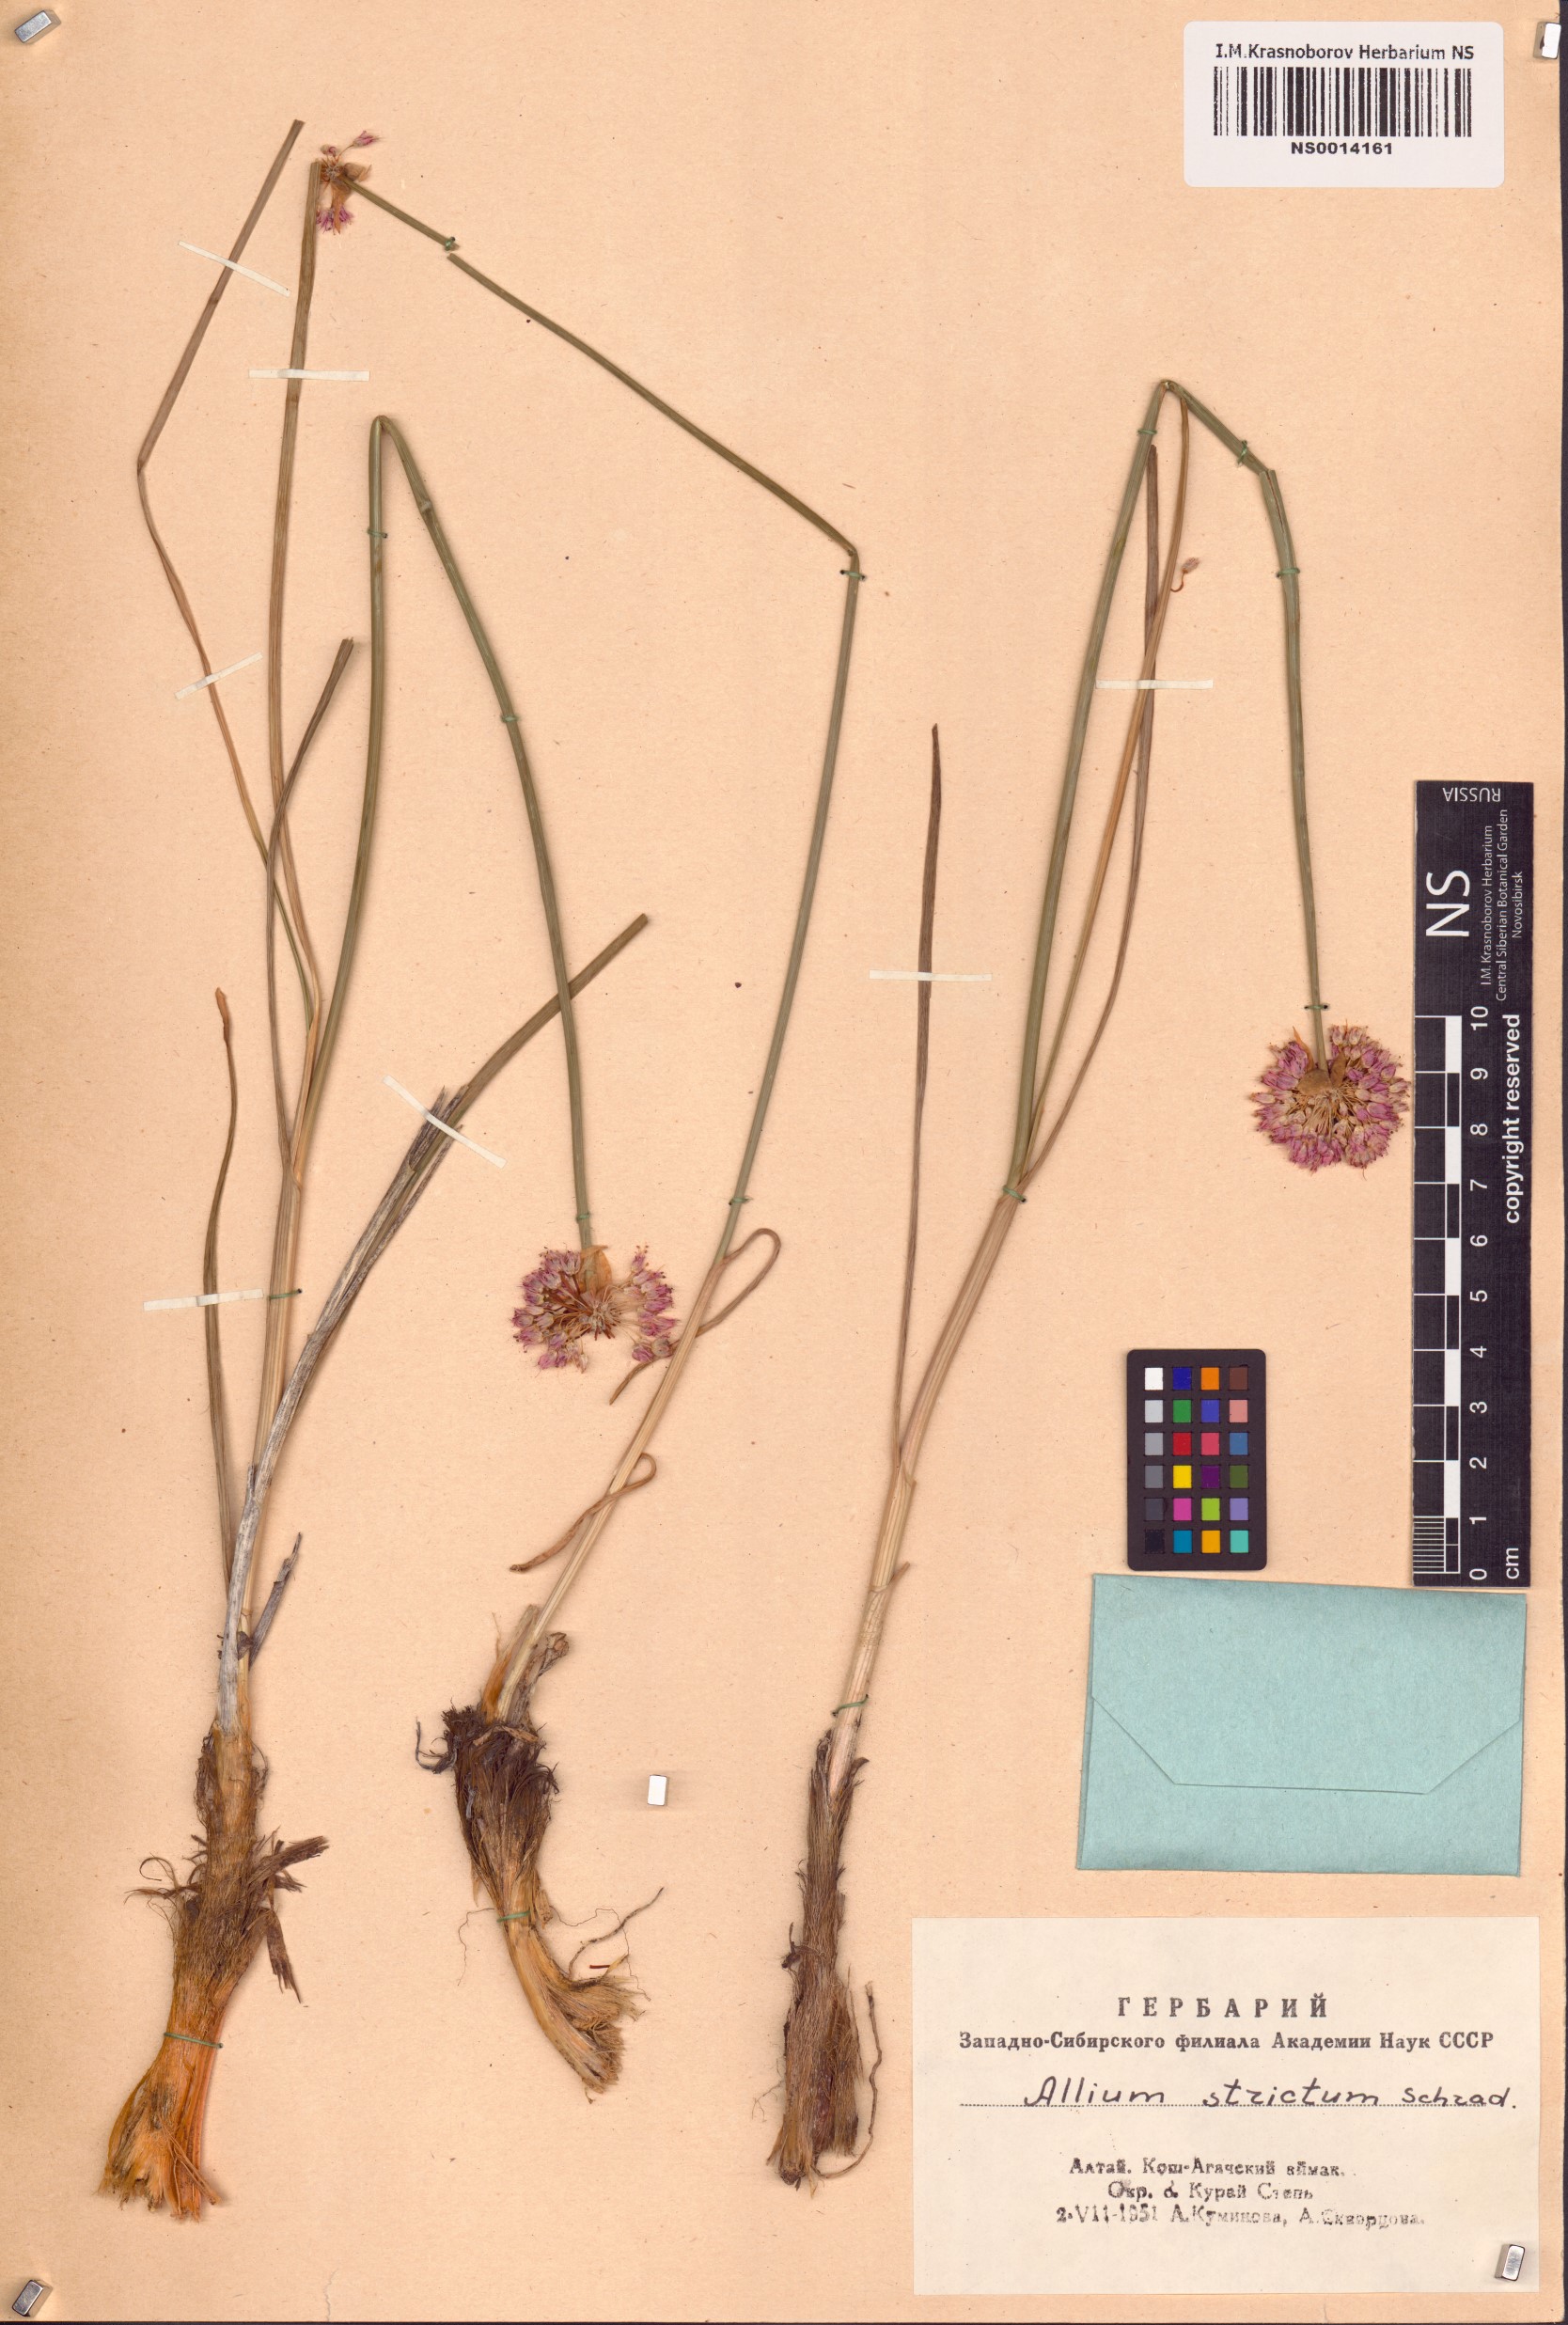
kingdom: Plantae
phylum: Tracheophyta
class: Liliopsida
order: Asparagales
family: Amaryllidaceae
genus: Allium
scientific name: Allium strictum
